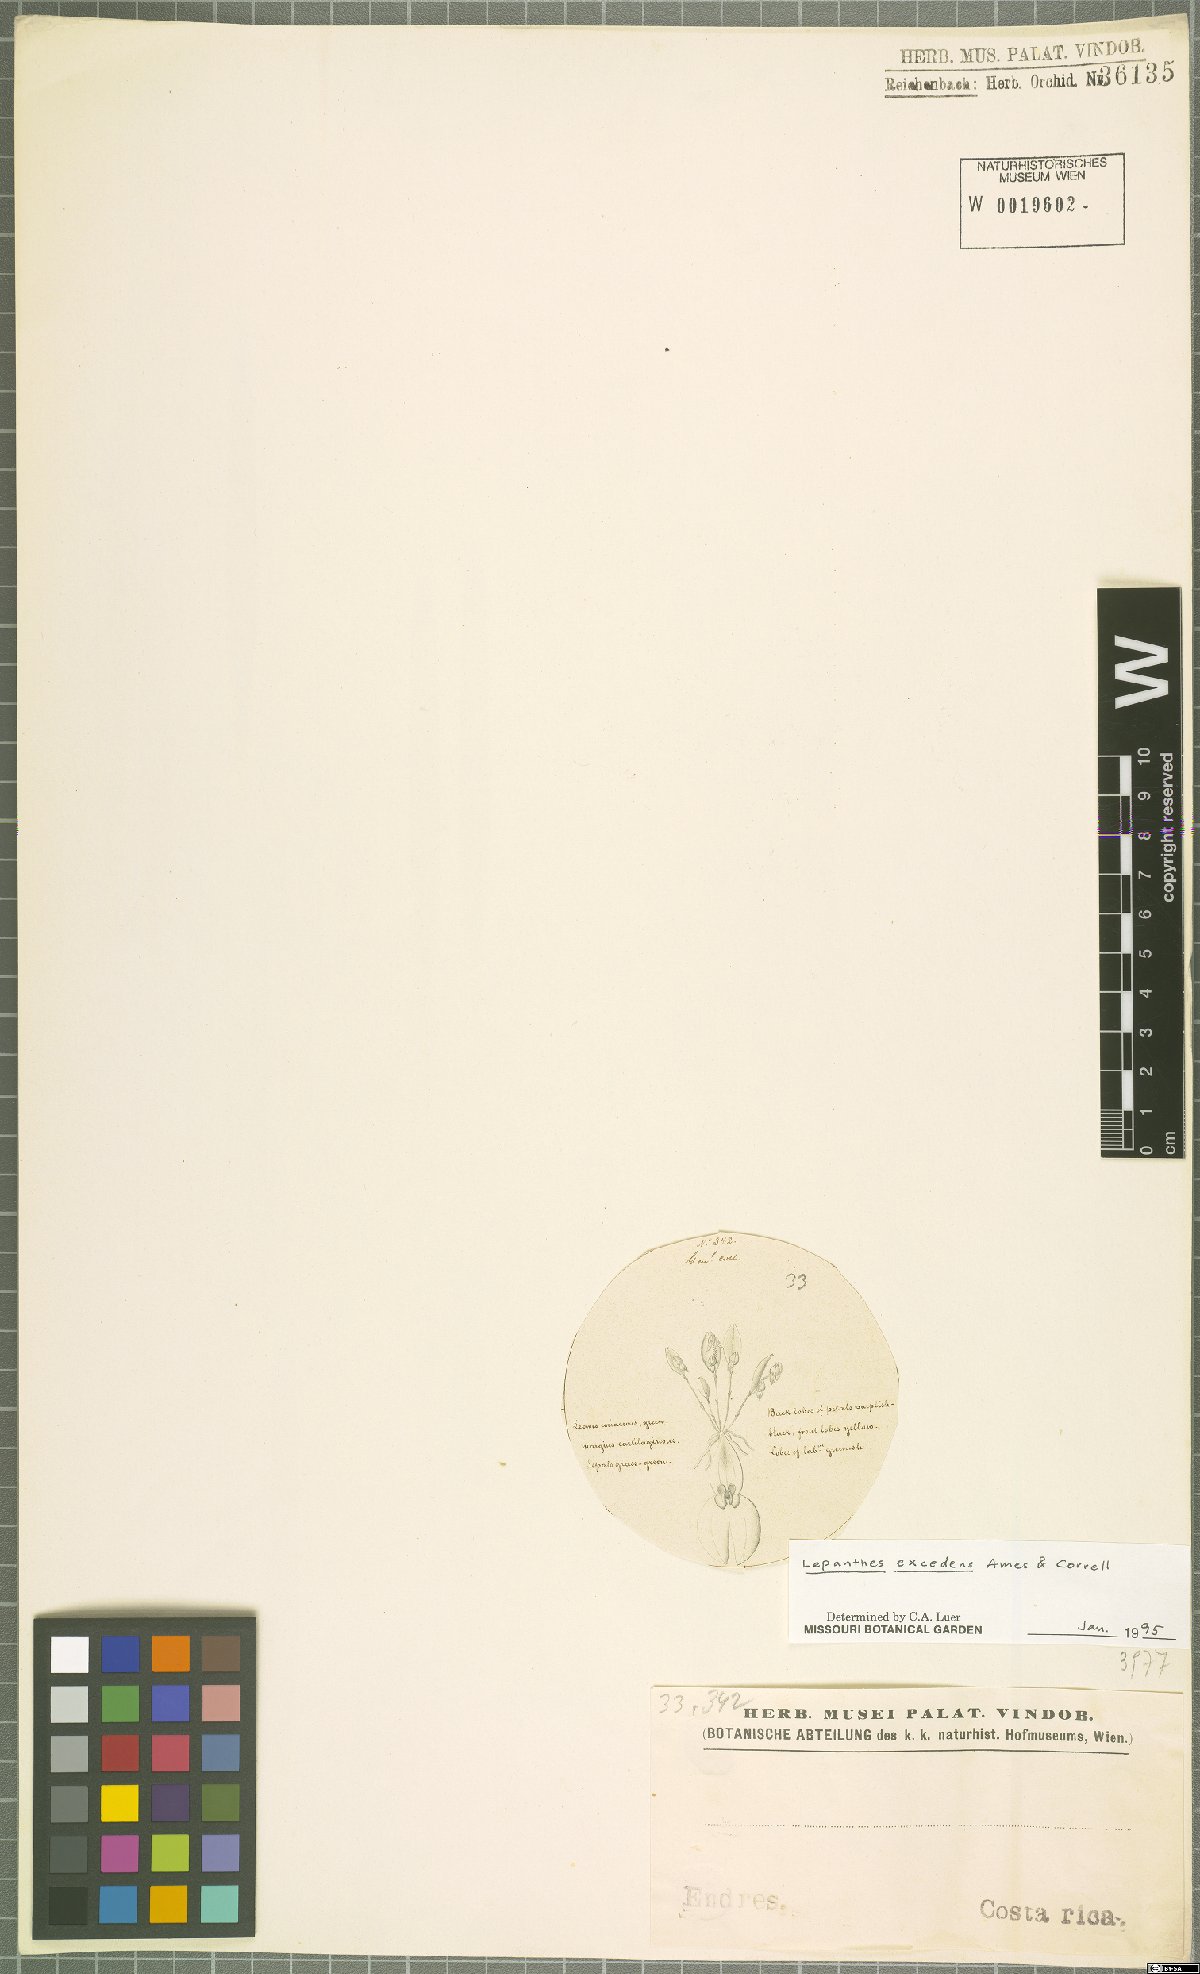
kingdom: Plantae
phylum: Tracheophyta
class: Liliopsida
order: Asparagales
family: Orchidaceae
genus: Lepanthes
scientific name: Lepanthes excedens
